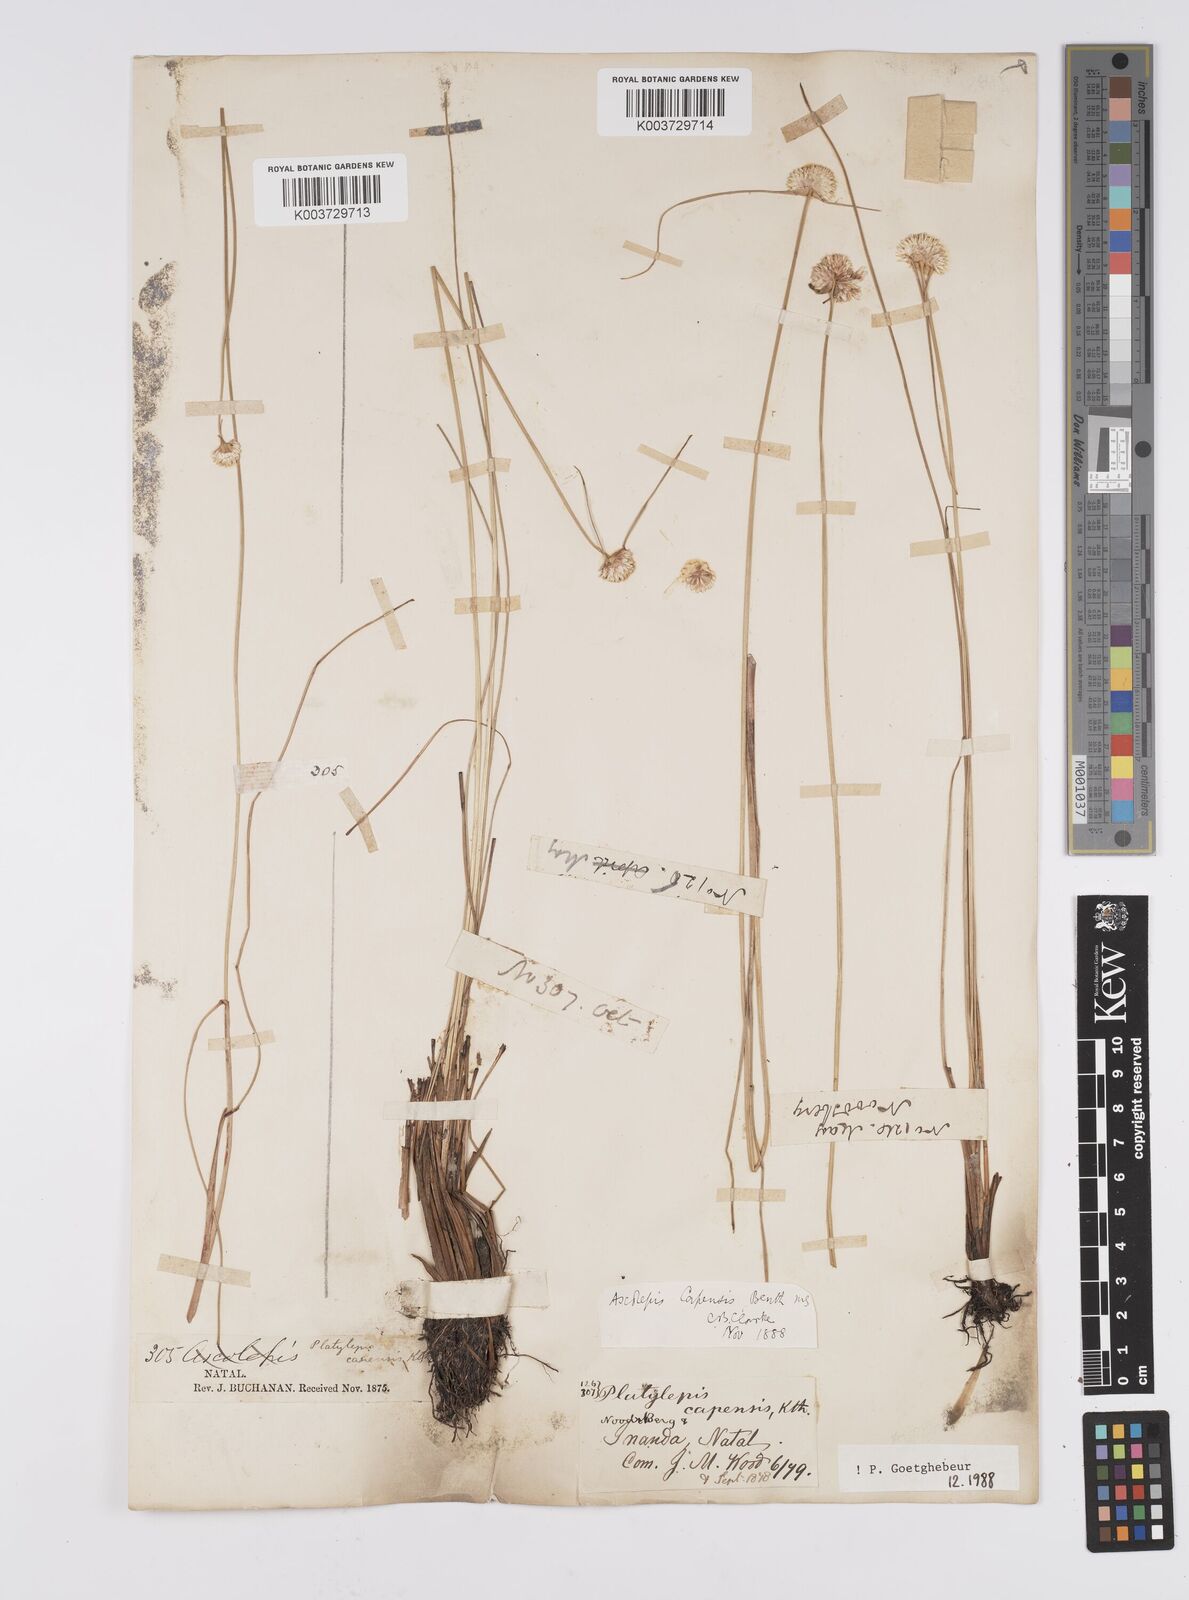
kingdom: Plantae
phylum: Tracheophyta
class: Liliopsida
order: Poales
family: Cyperaceae
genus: Cyperus
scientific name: Cyperus capensis
